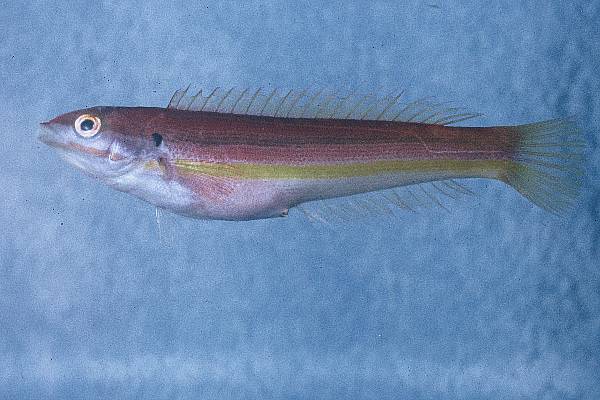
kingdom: Animalia
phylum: Chordata
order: Perciformes
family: Labridae
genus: Coris
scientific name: Coris julis
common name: Rainbow wrasse
